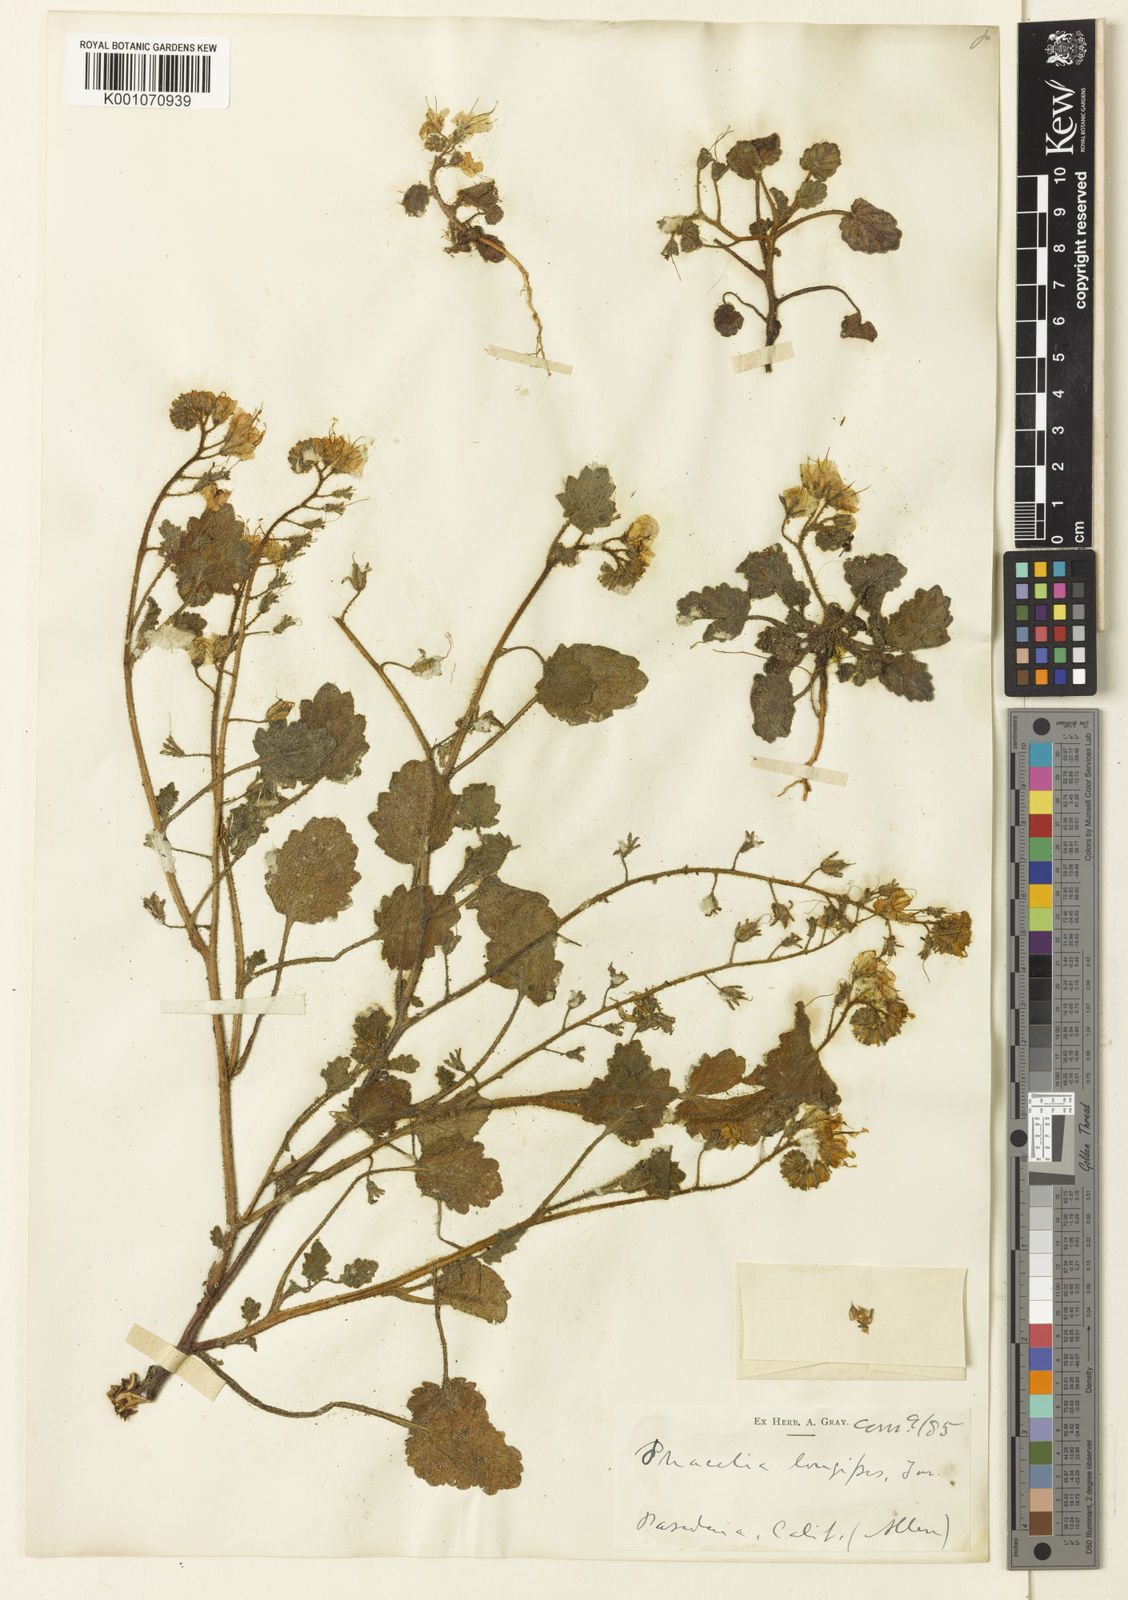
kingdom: Plantae
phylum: Tracheophyta
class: Magnoliopsida
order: Boraginales
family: Hydrophyllaceae
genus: Phacelia
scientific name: Phacelia longipes
